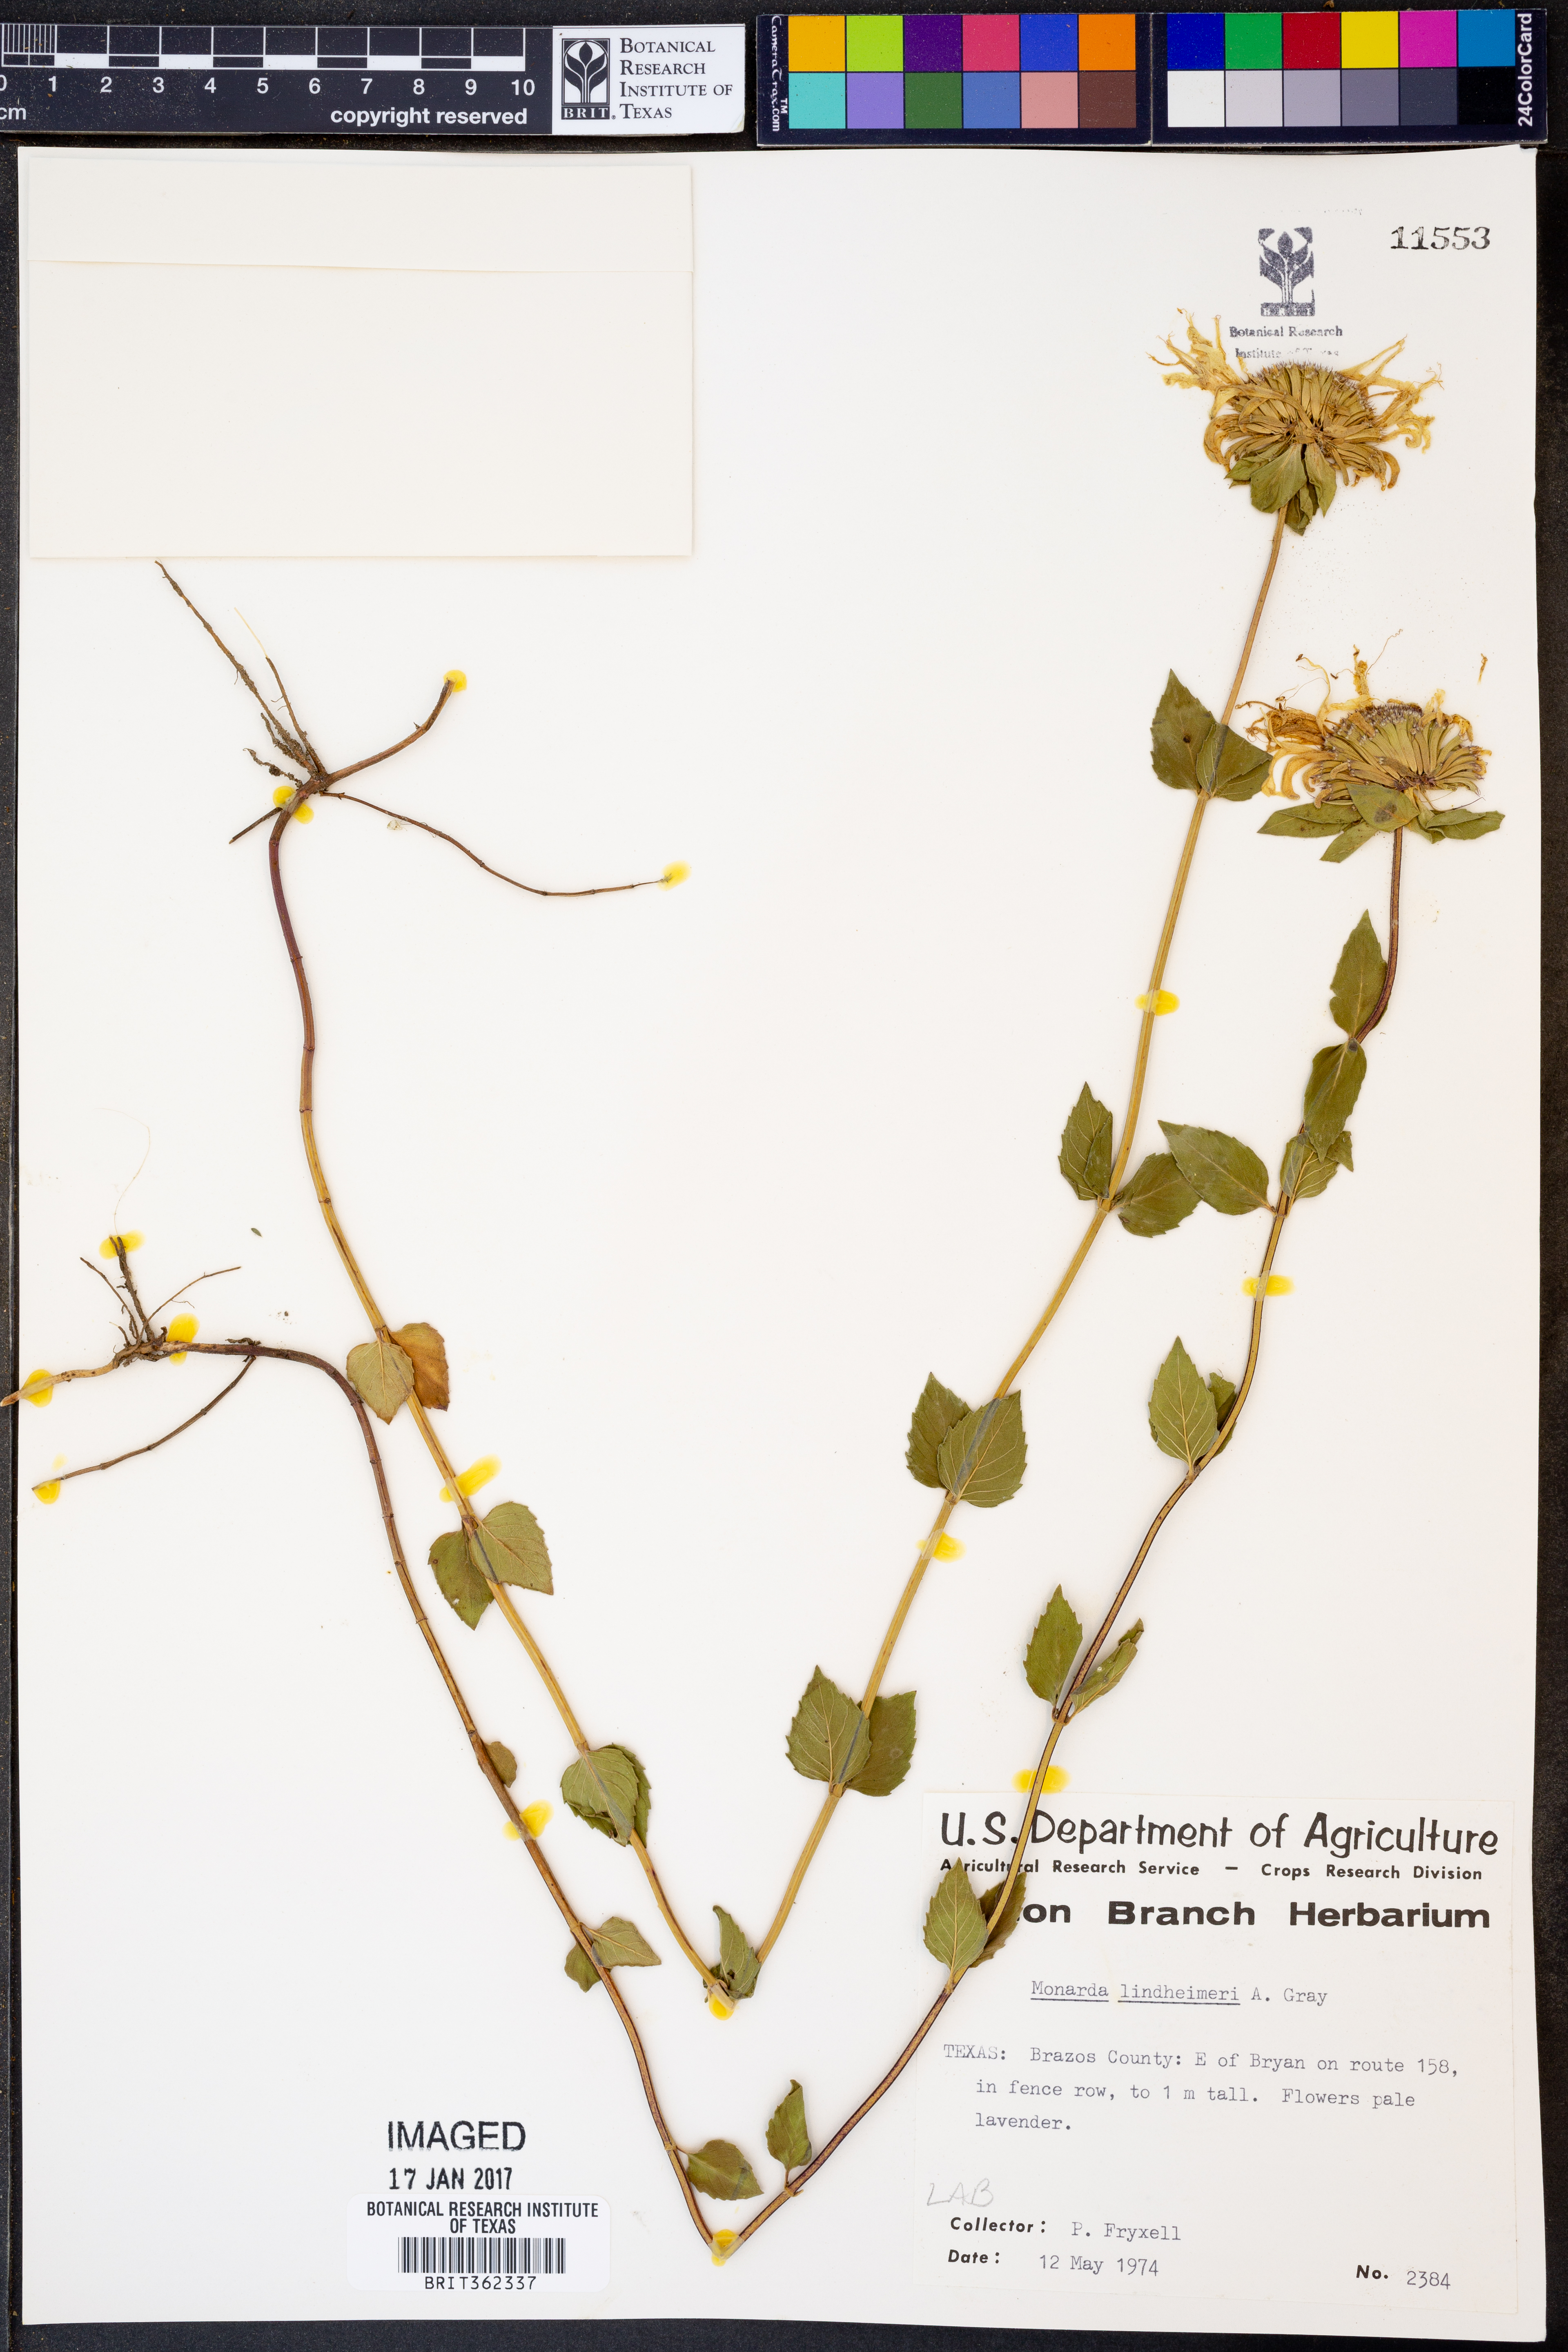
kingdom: Plantae
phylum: Tracheophyta
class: Magnoliopsida
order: Lamiales
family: Lamiaceae
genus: Monarda
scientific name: Monarda lindheimeri
